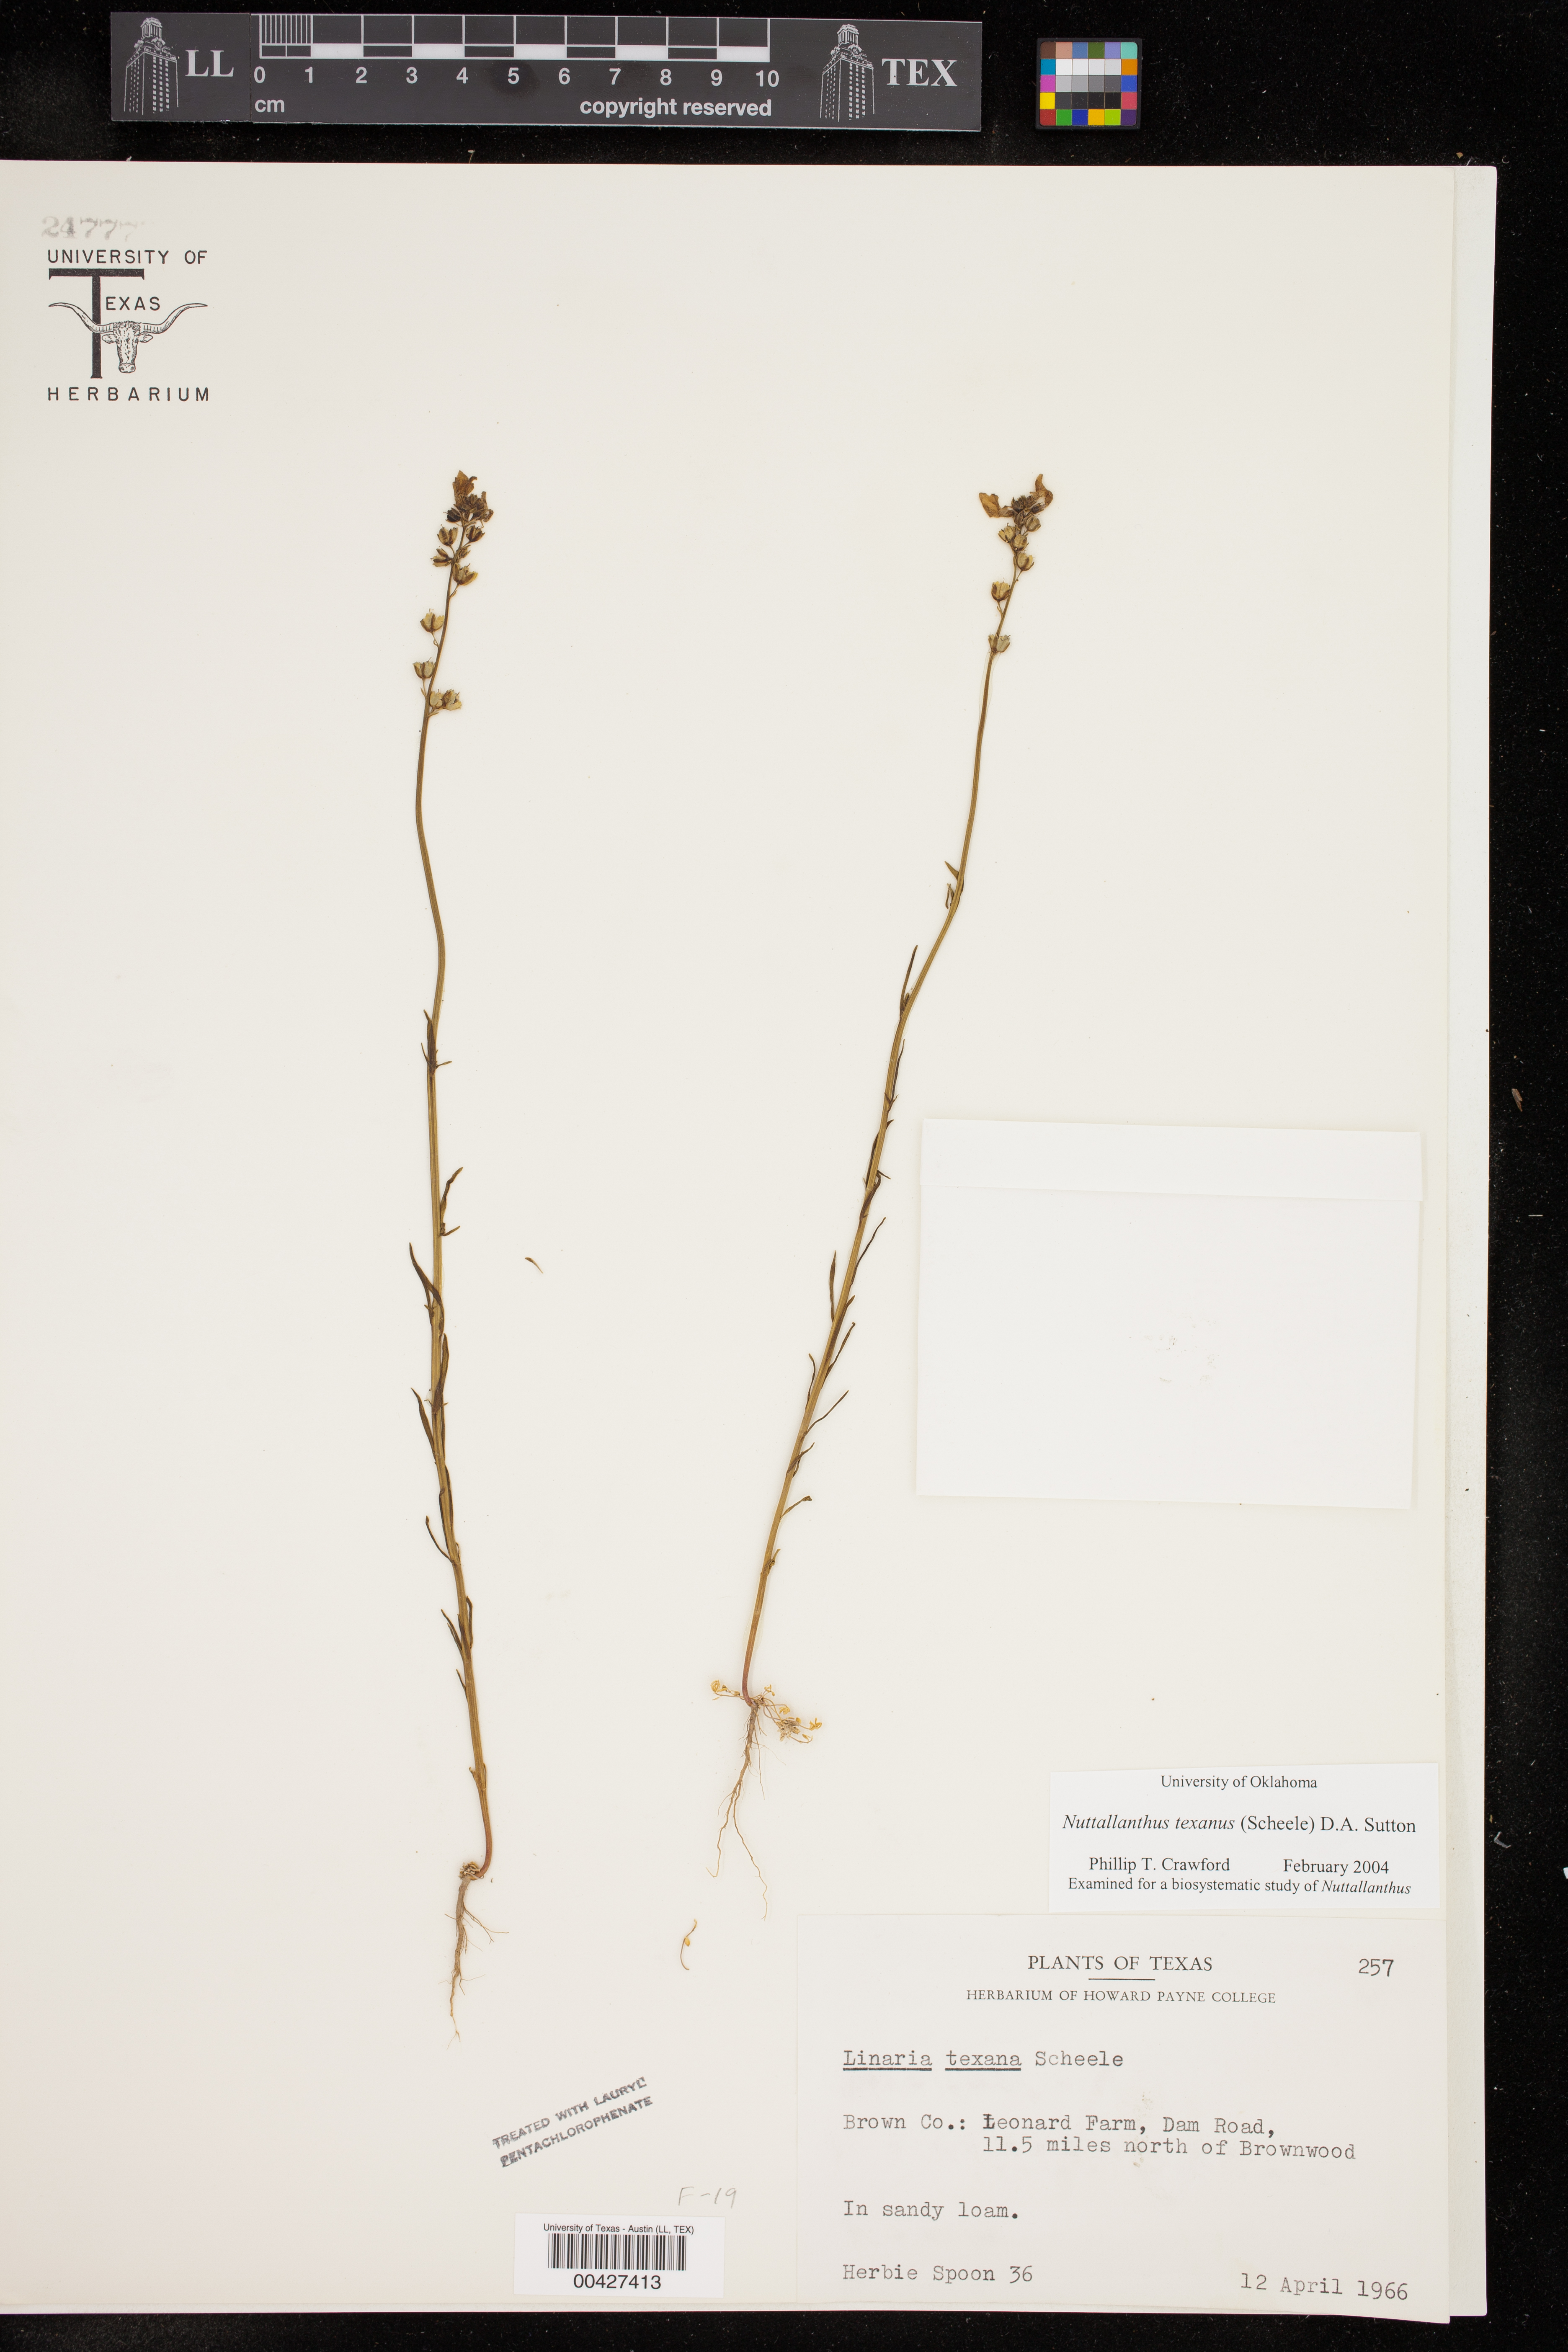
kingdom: Plantae
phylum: Tracheophyta
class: Magnoliopsida
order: Lamiales
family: Plantaginaceae
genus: Nuttallanthus
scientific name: Nuttallanthus texanus
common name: Texas toadflax
